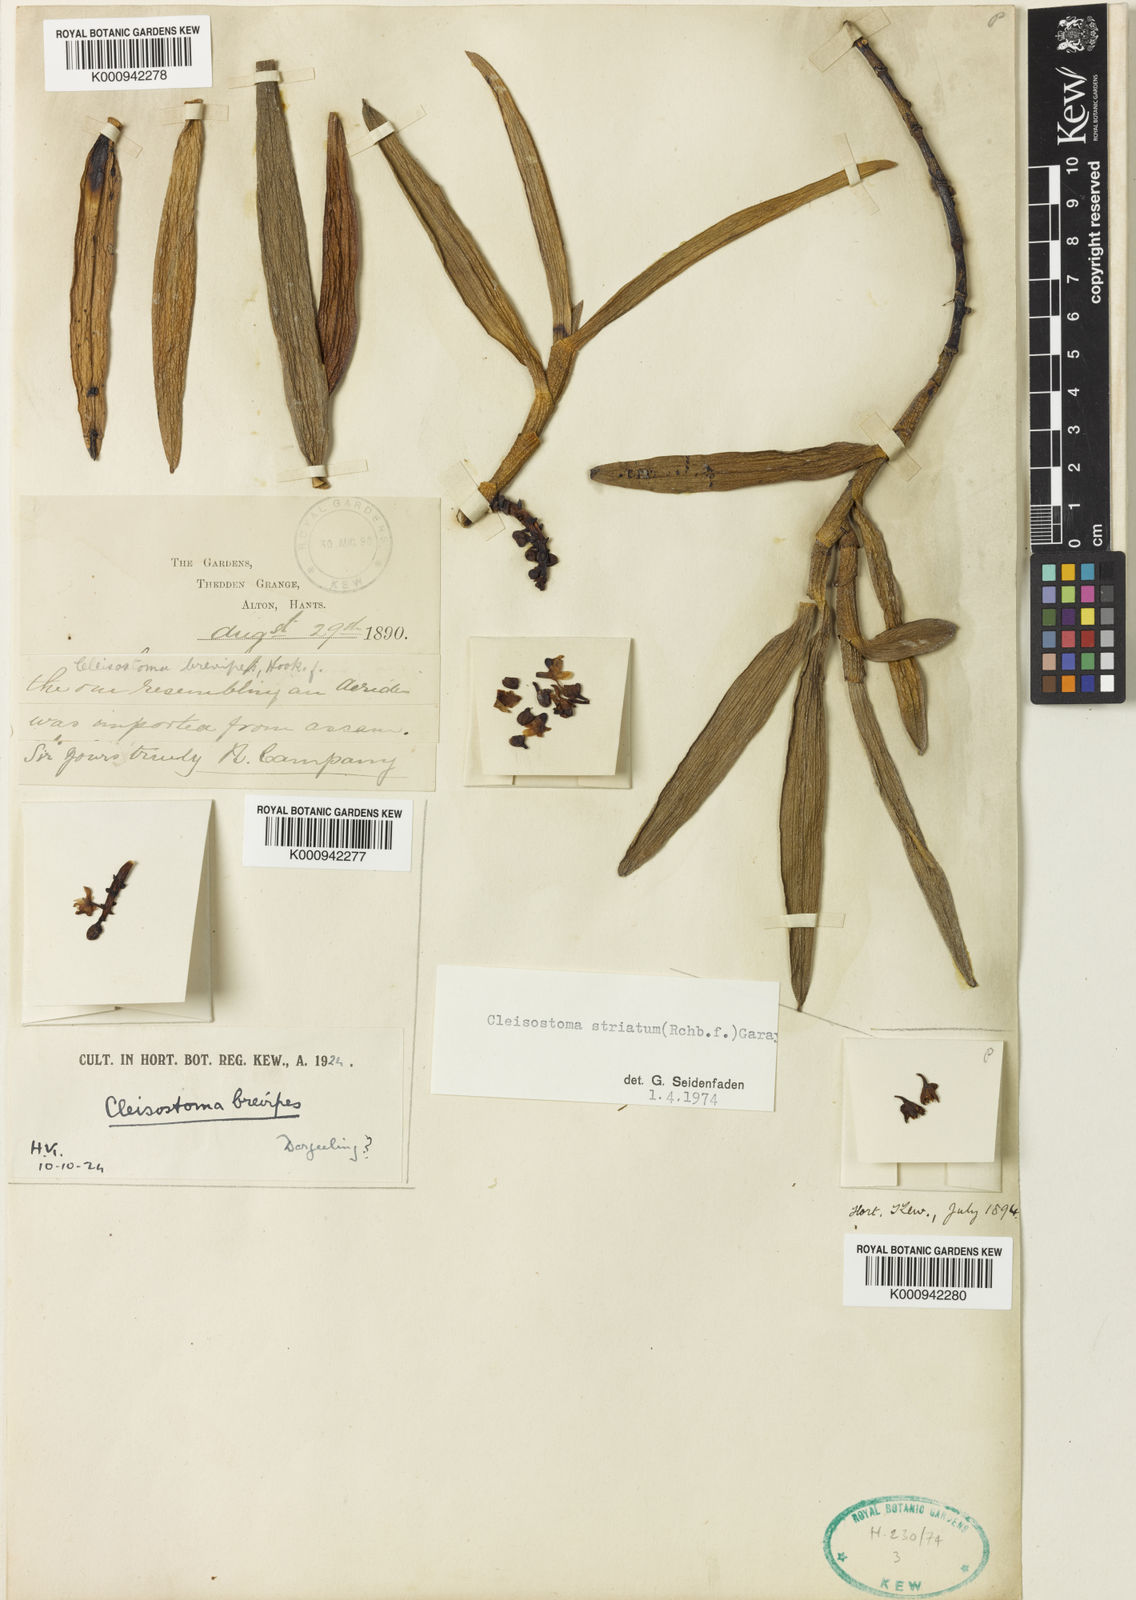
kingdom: Plantae
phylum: Tracheophyta
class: Liliopsida
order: Asparagales
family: Orchidaceae
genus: Cleisostoma
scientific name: Cleisostoma striatum
